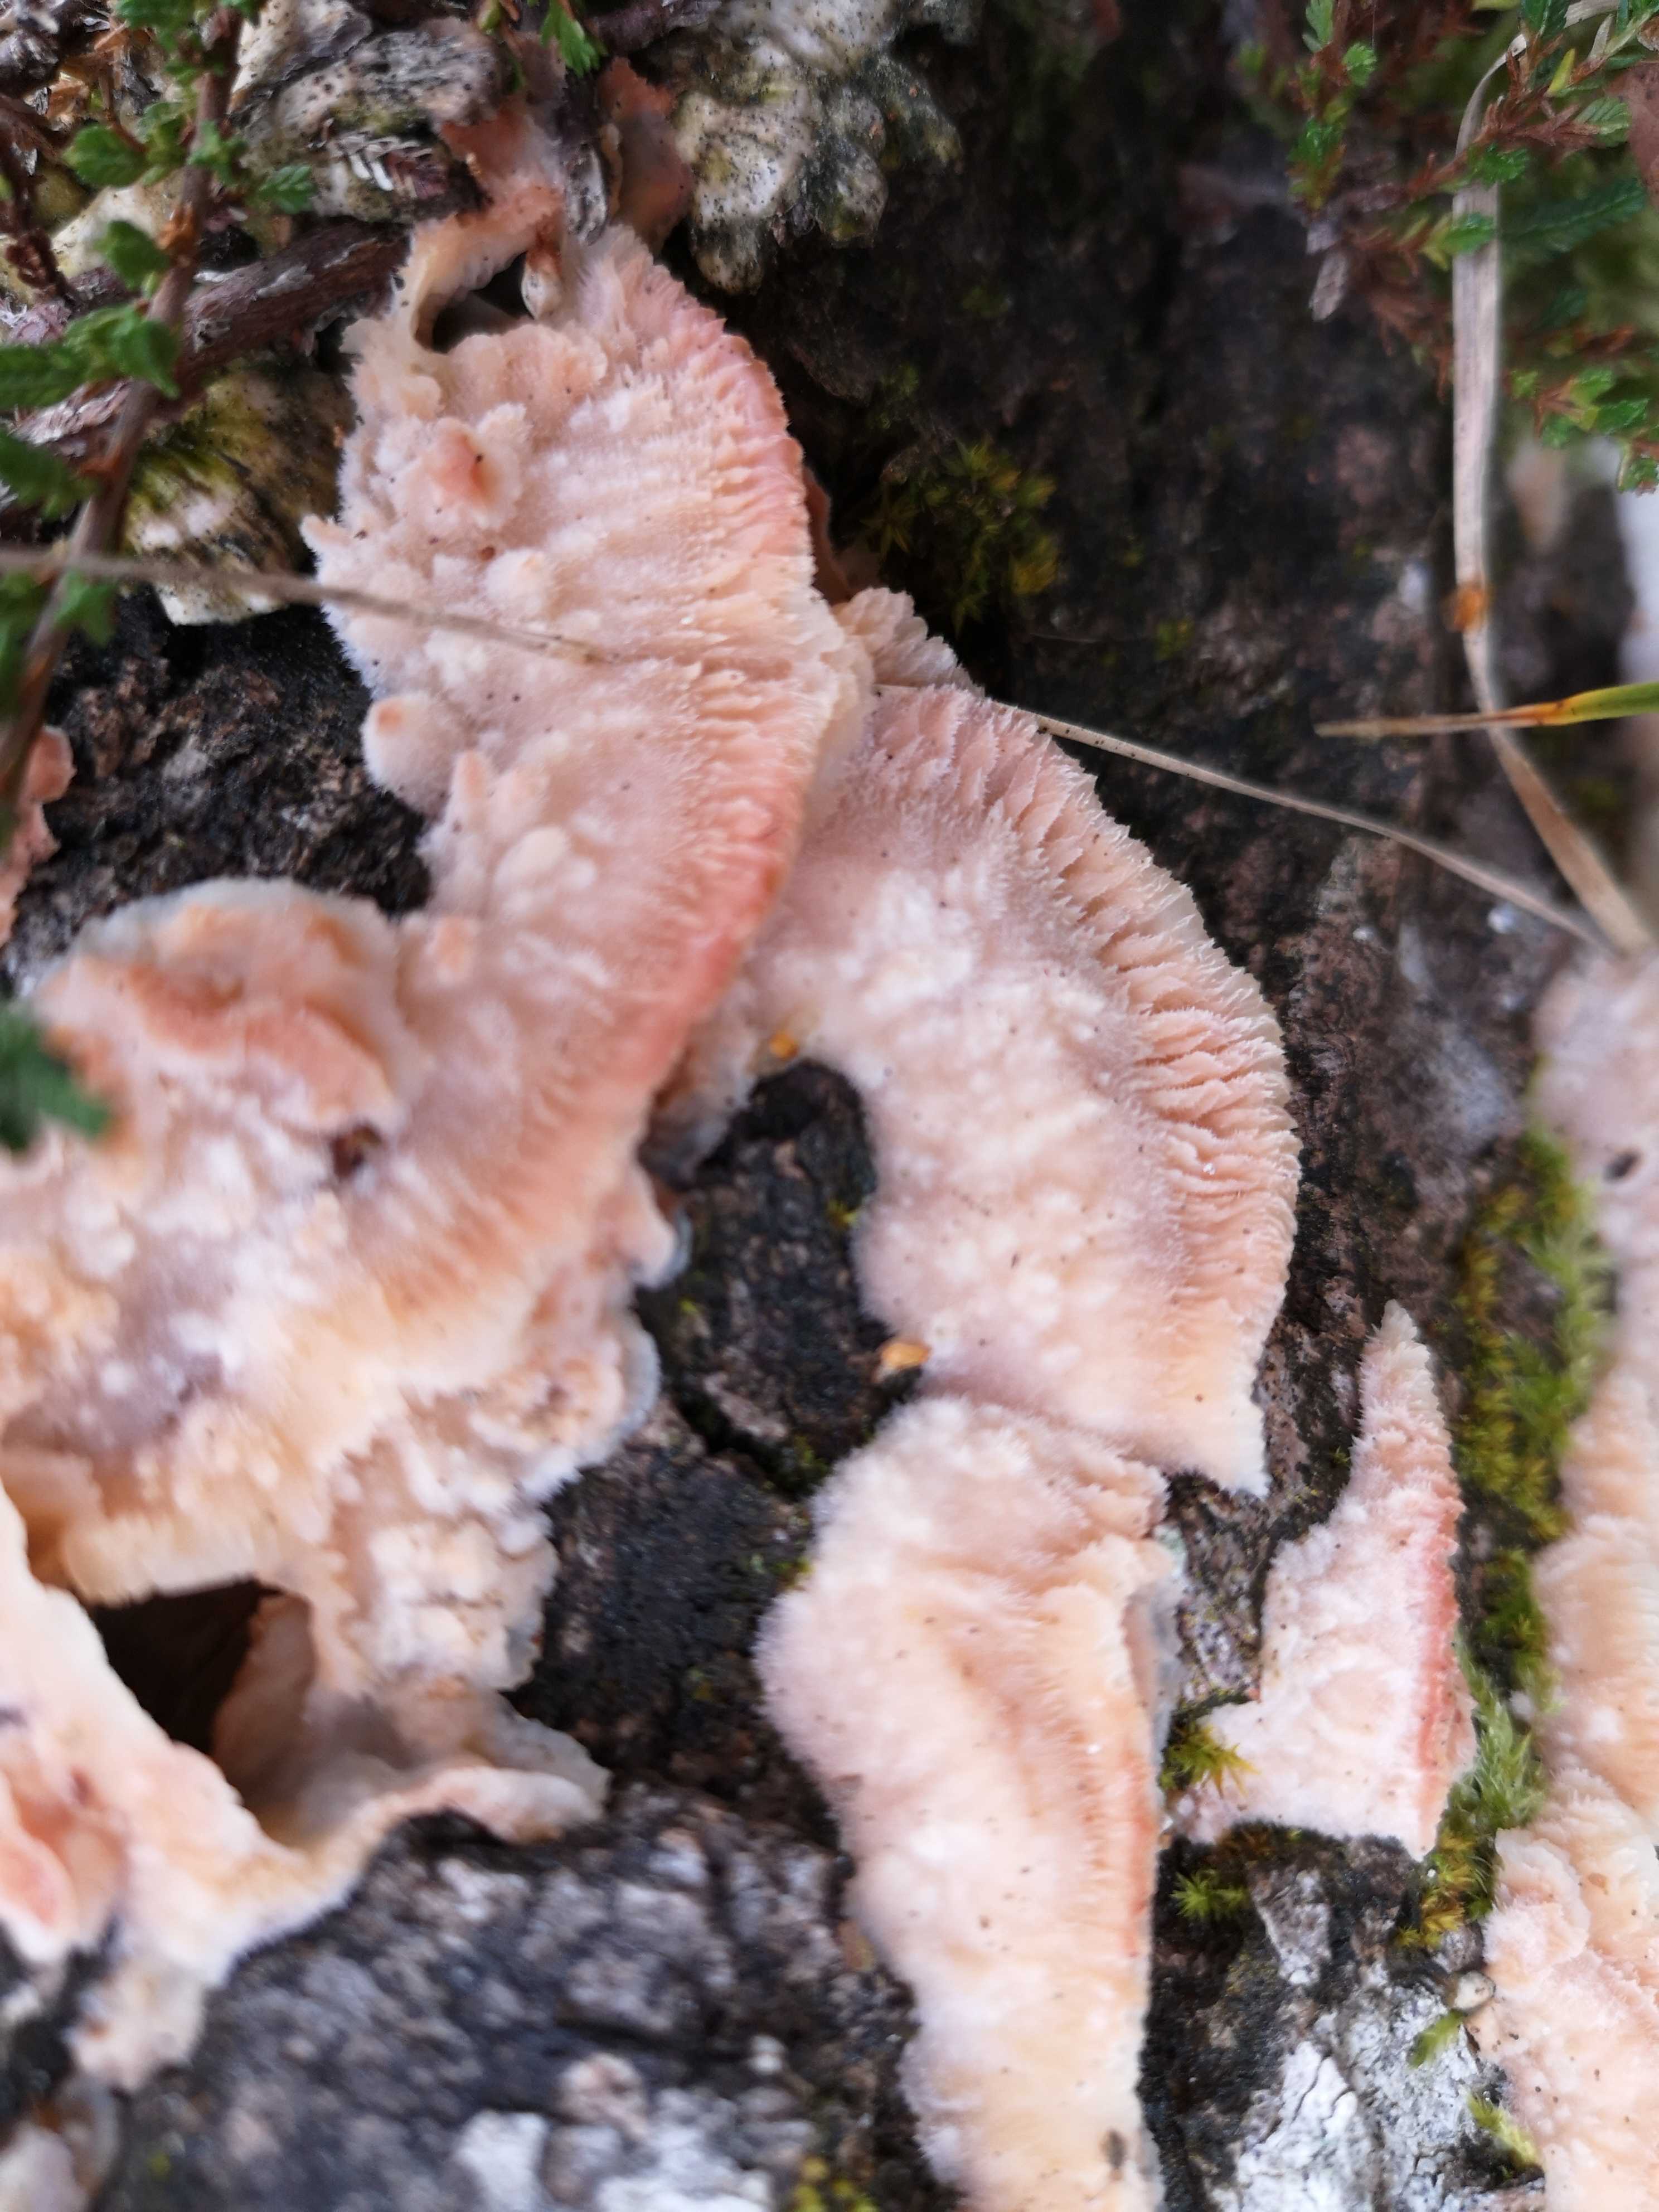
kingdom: Fungi
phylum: Basidiomycota
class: Agaricomycetes
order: Polyporales
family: Meruliaceae
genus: Phlebia
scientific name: Phlebia tremellosa
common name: bævrende åresvamp
